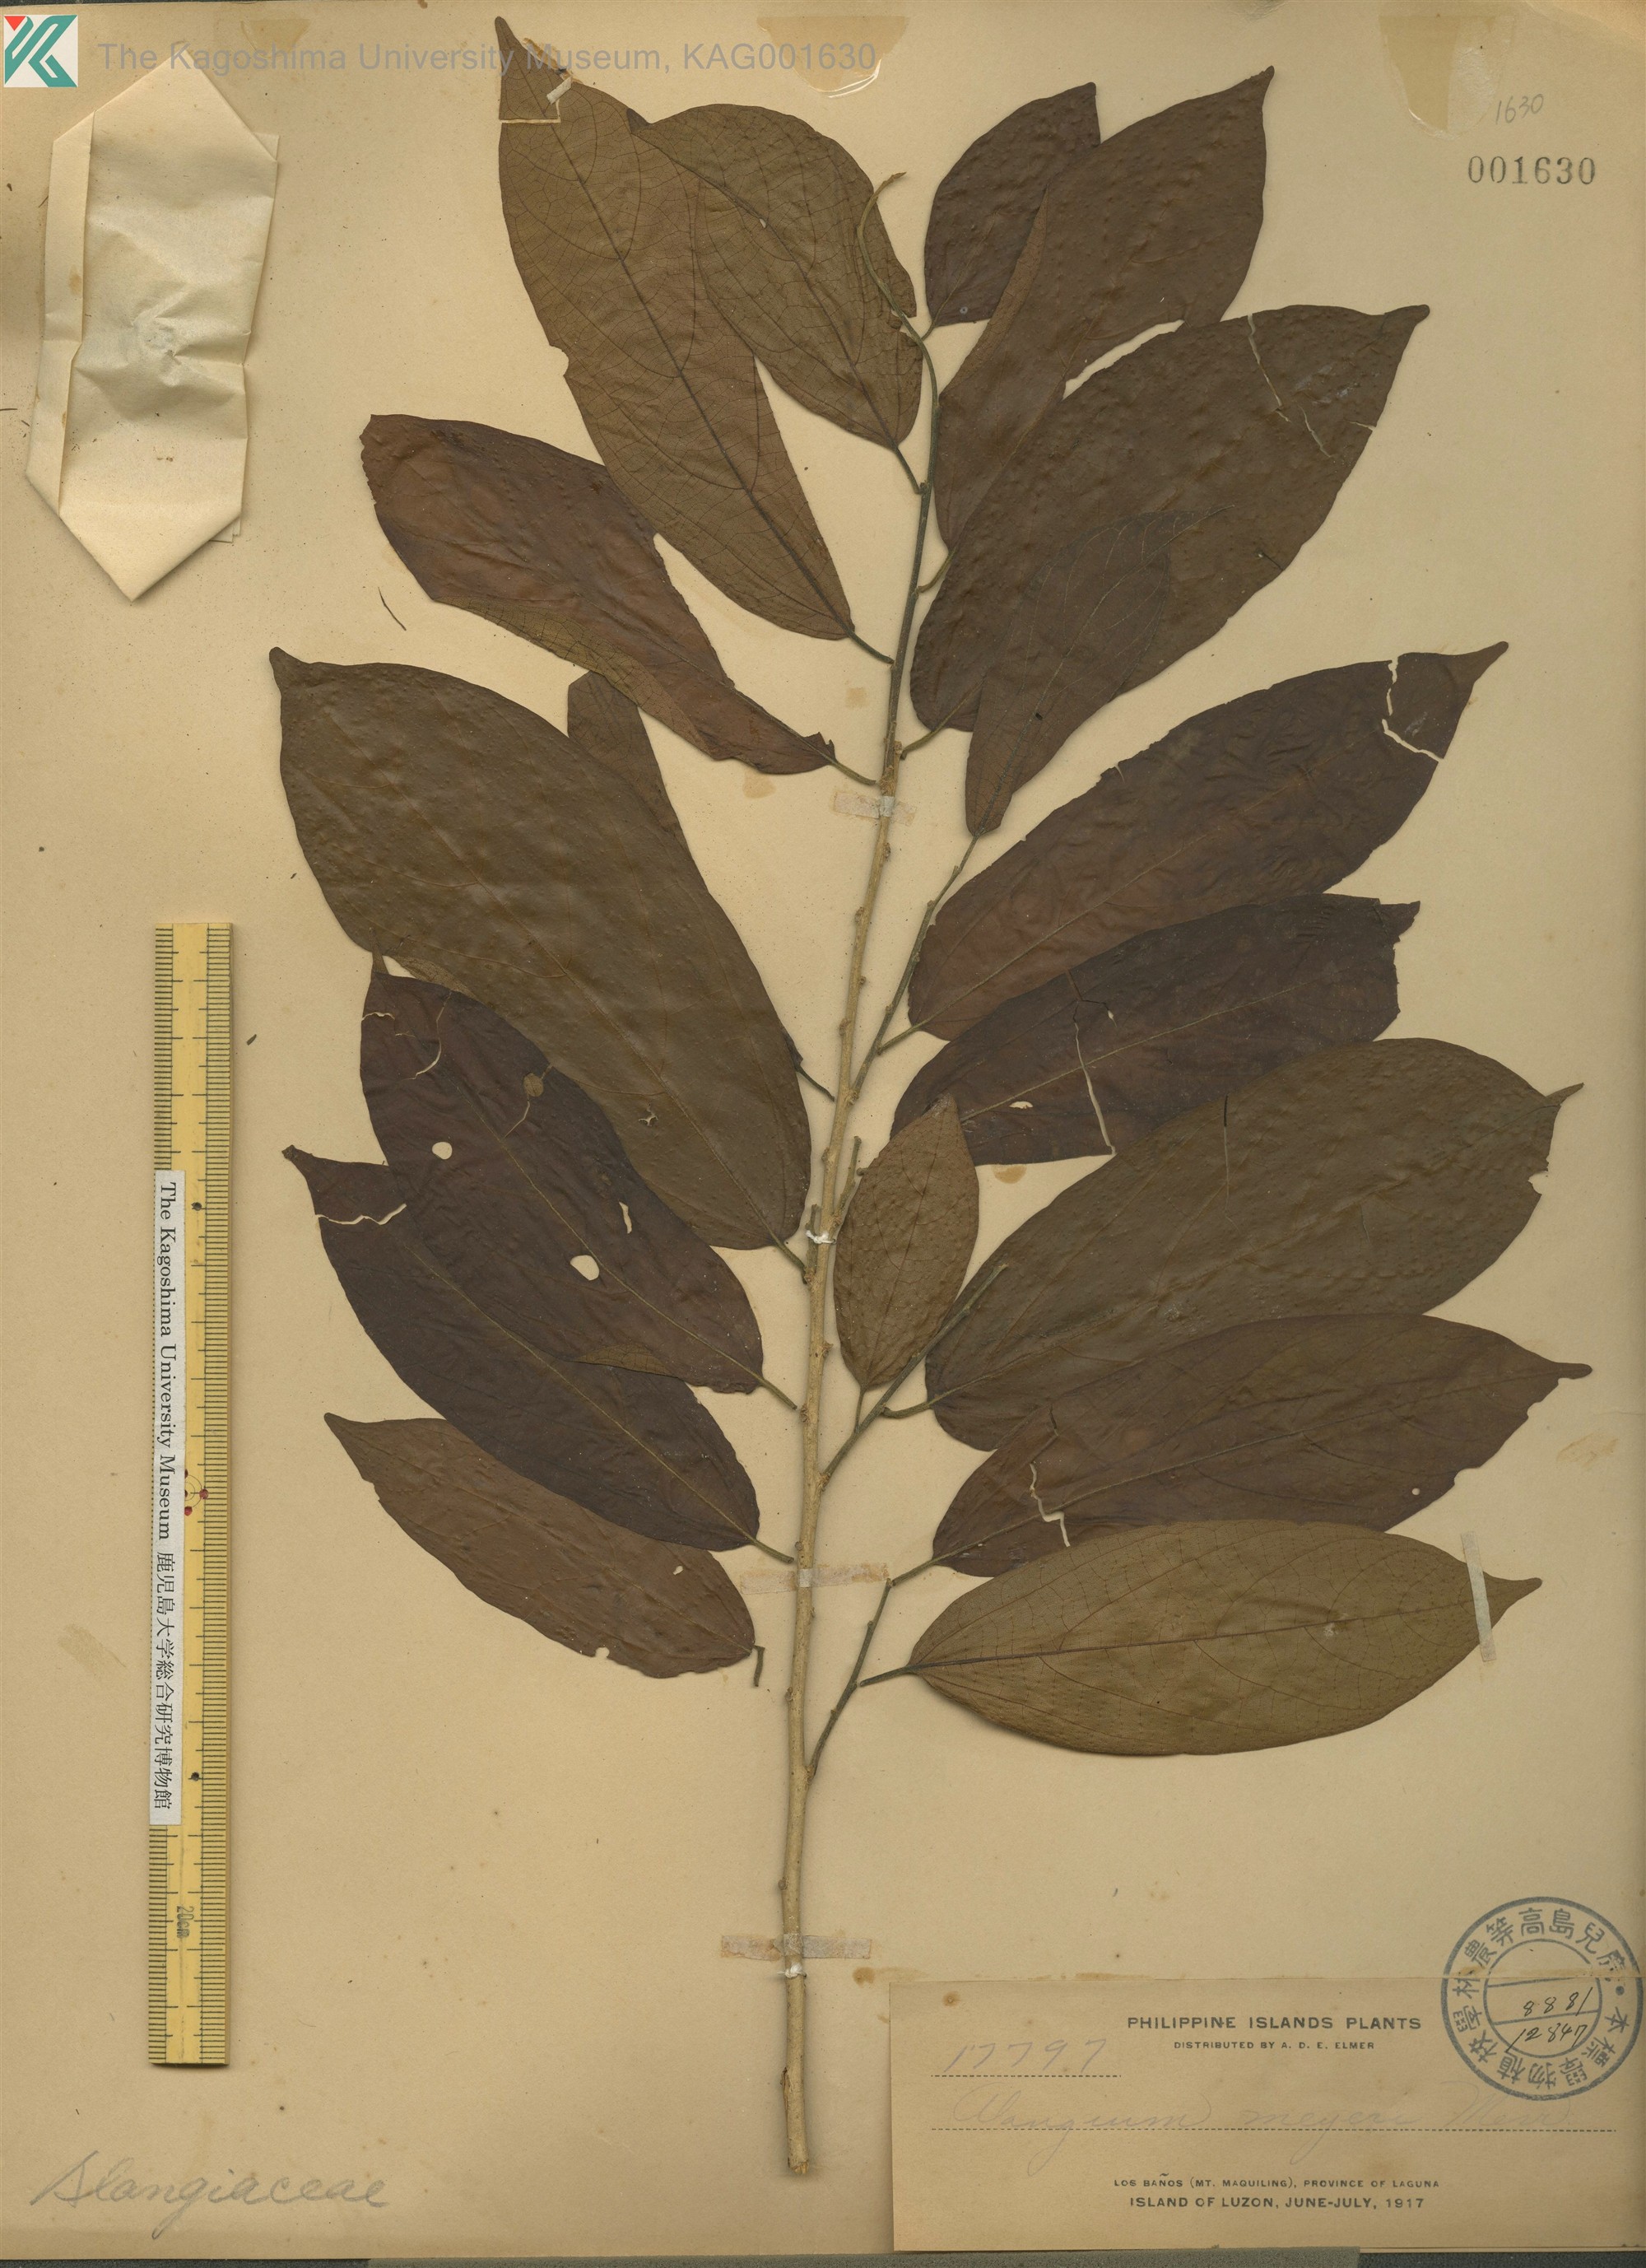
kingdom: Plantae
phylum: Tracheophyta
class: Magnoliopsida
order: Cornales
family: Cornaceae
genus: Alangium
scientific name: Alangium meyeri
